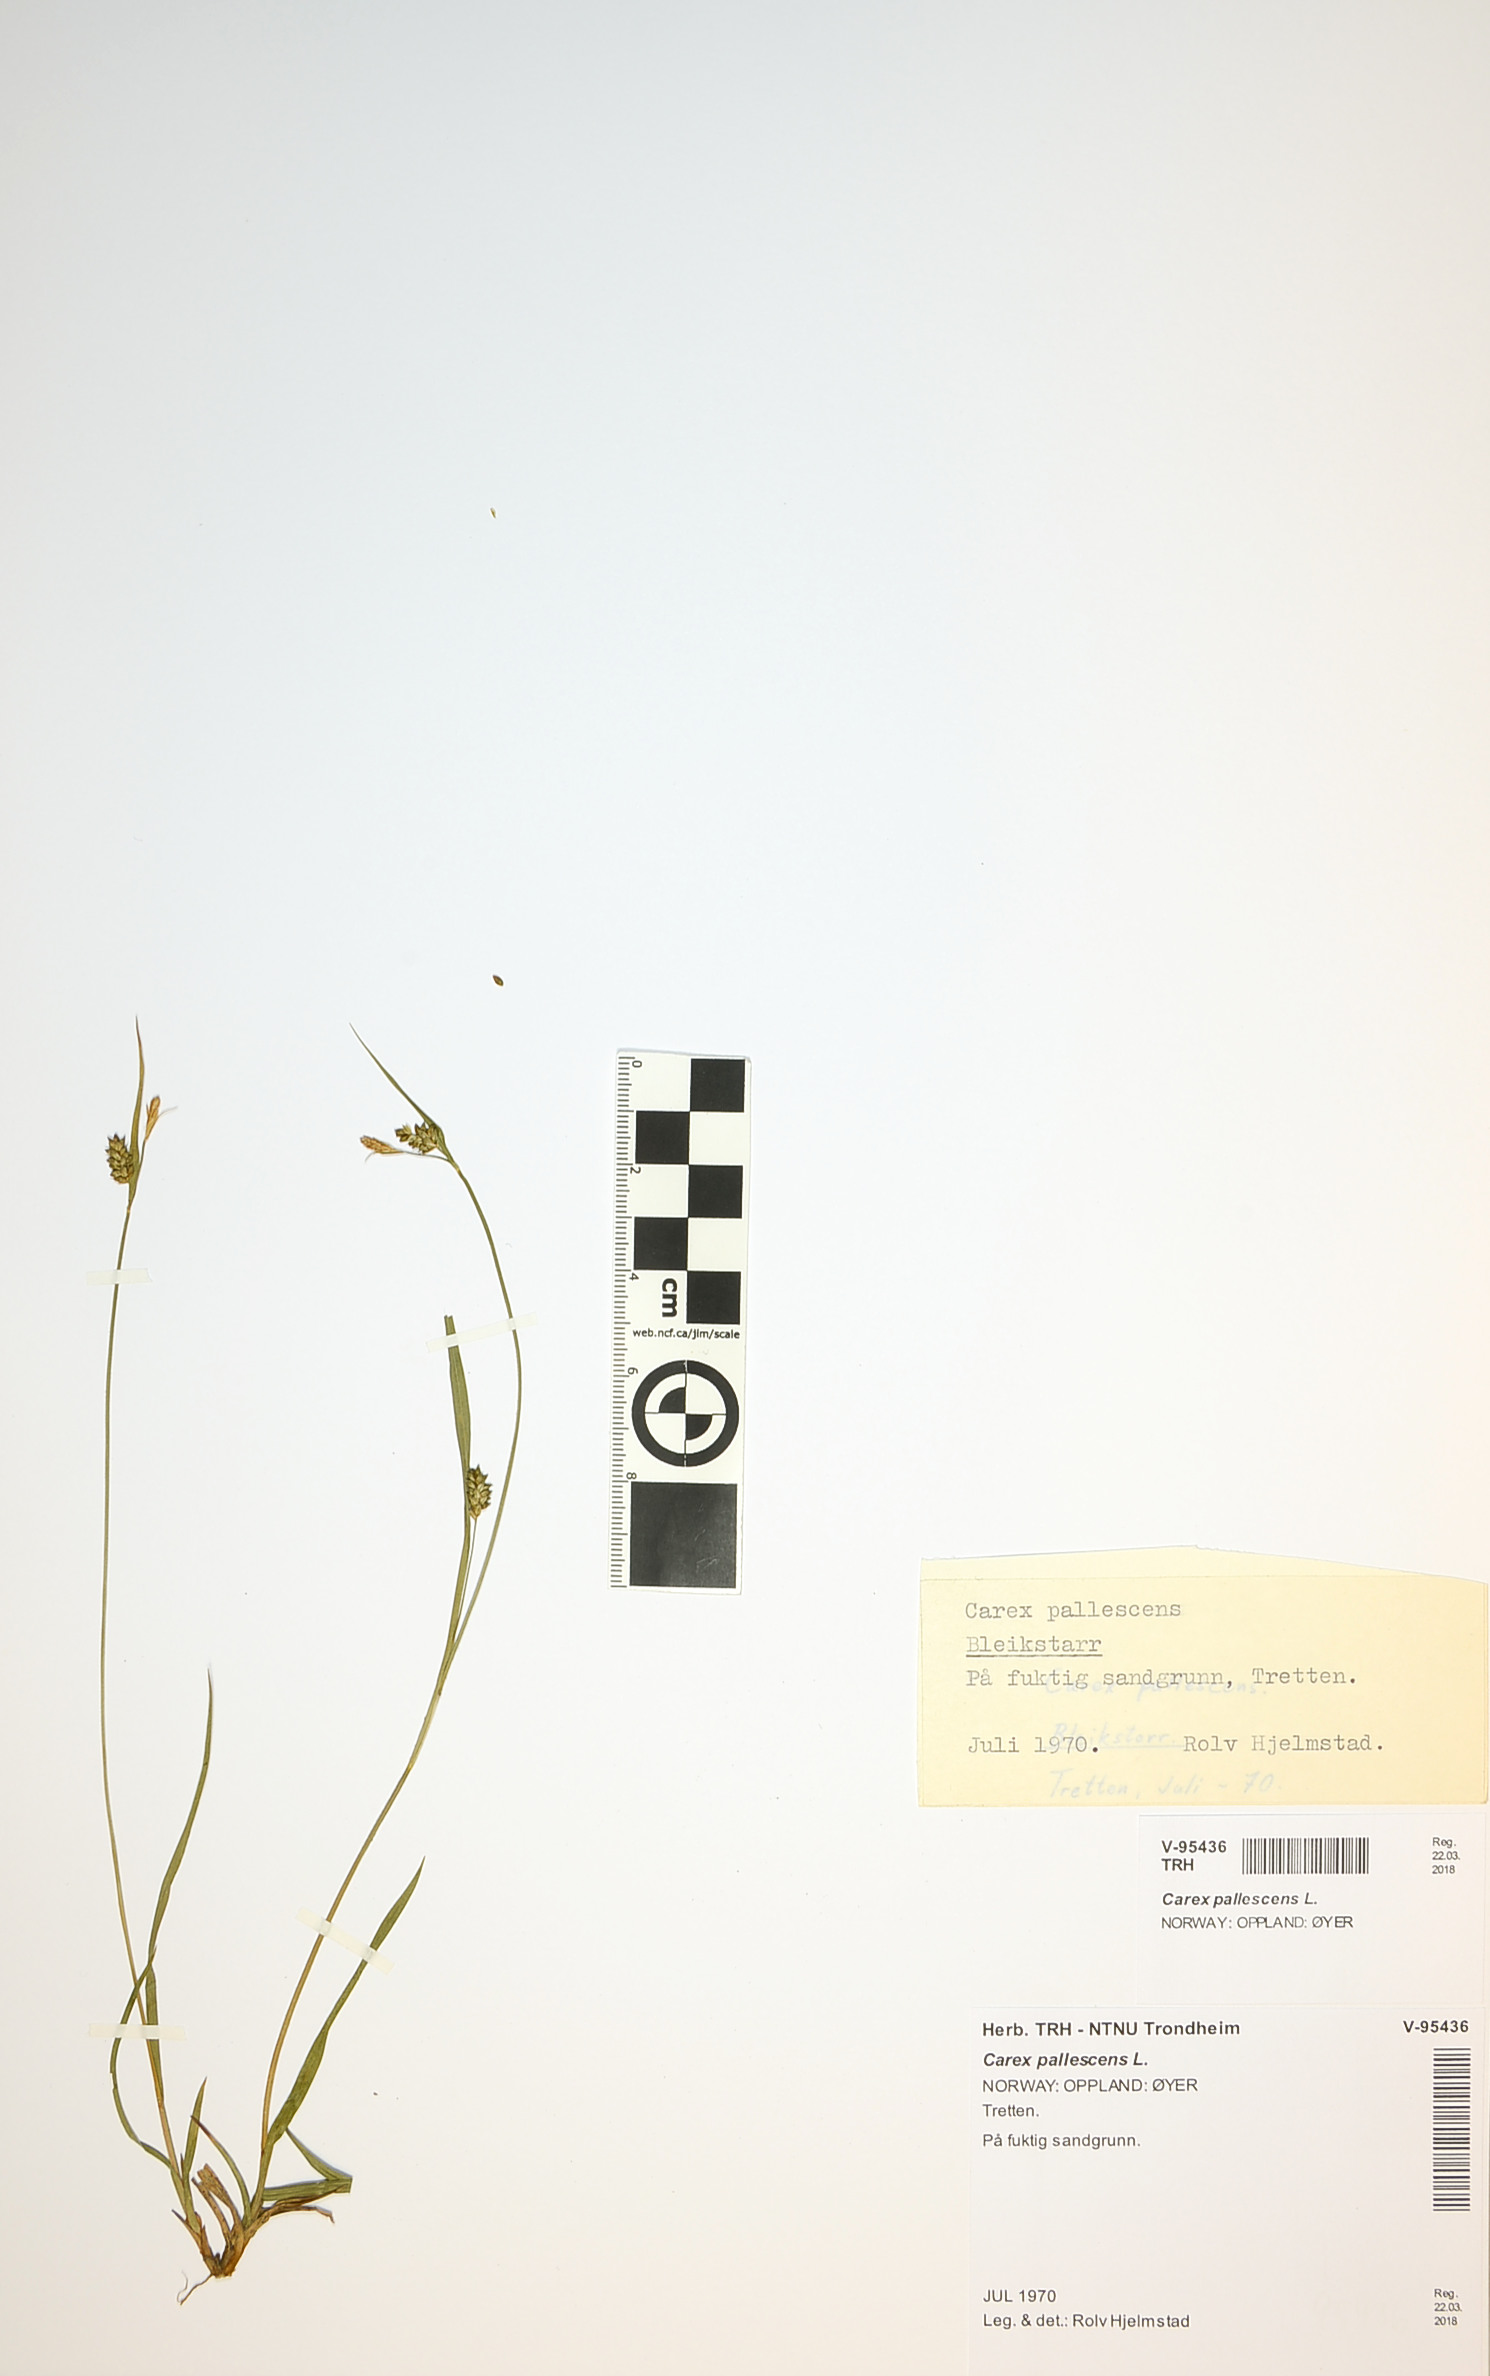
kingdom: Plantae
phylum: Tracheophyta
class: Liliopsida
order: Poales
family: Cyperaceae
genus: Carex
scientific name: Carex pallescens
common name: Pale sedge
